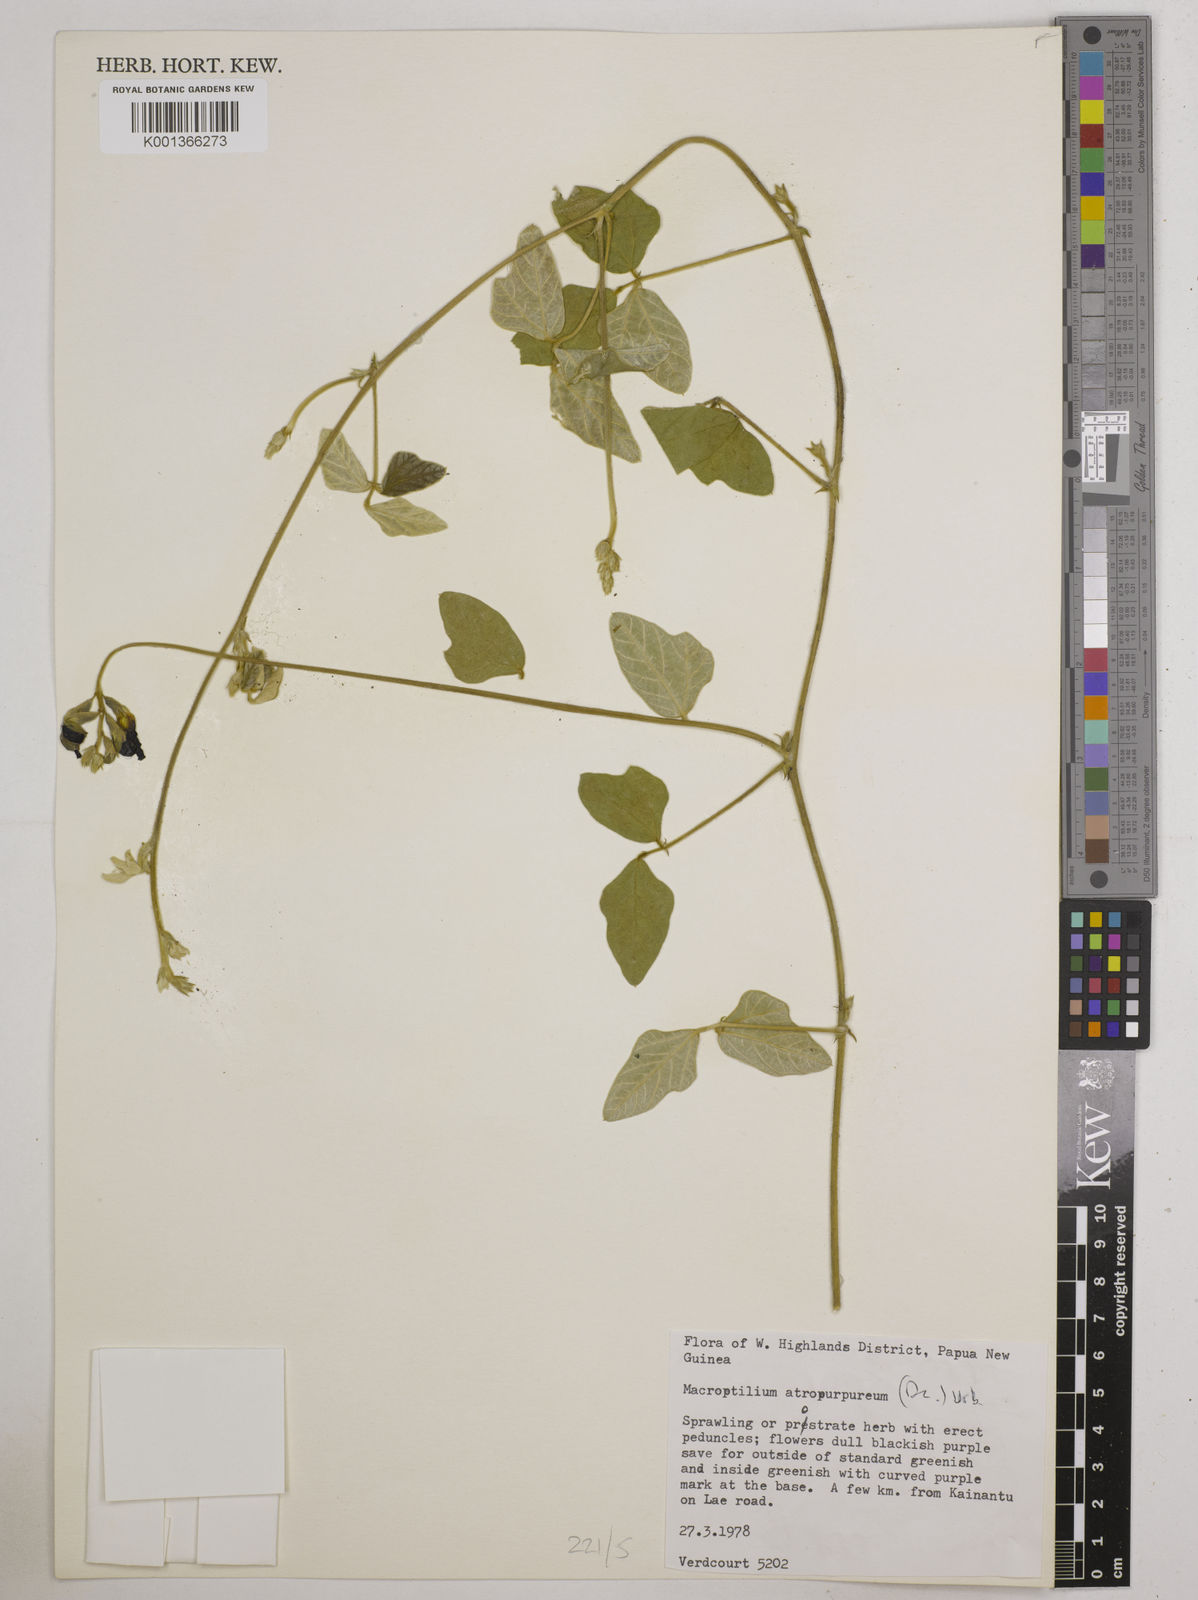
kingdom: Plantae
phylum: Tracheophyta
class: Magnoliopsida
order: Fabales
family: Fabaceae
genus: Macroptilium
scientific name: Macroptilium atropurpureum
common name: Purple bushbean
